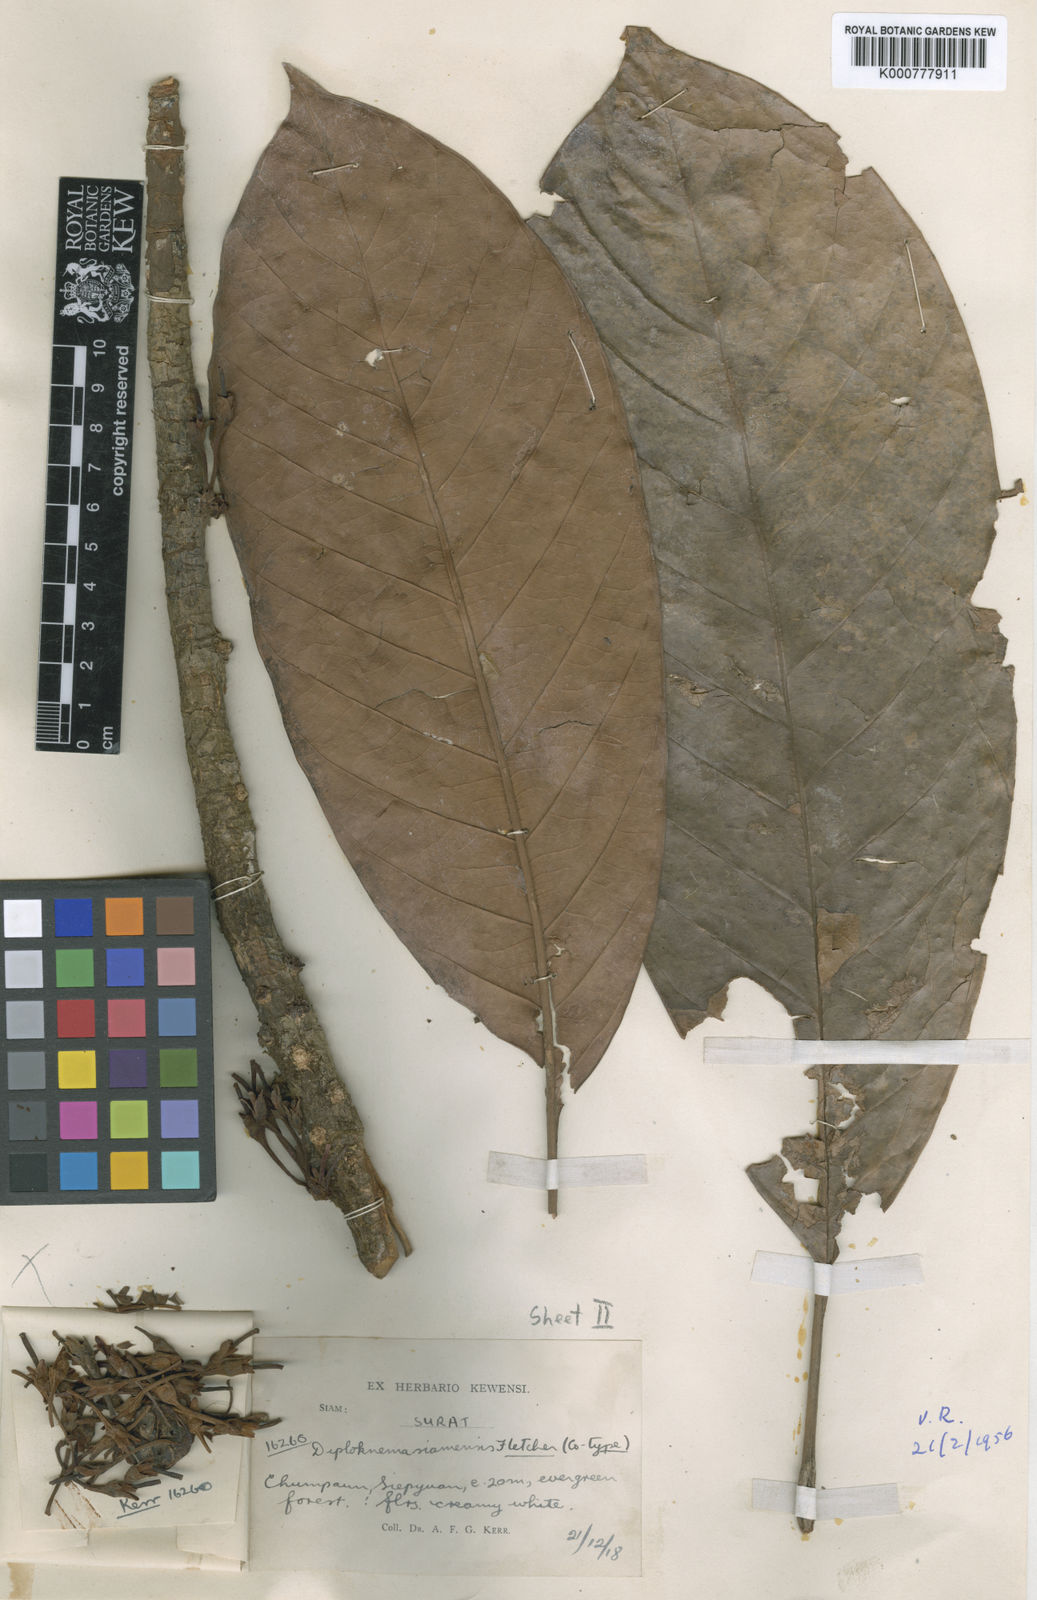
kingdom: Plantae
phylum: Tracheophyta
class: Magnoliopsida
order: Ericales
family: Sapotaceae
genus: Diploknema
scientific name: Diploknema siamensis
